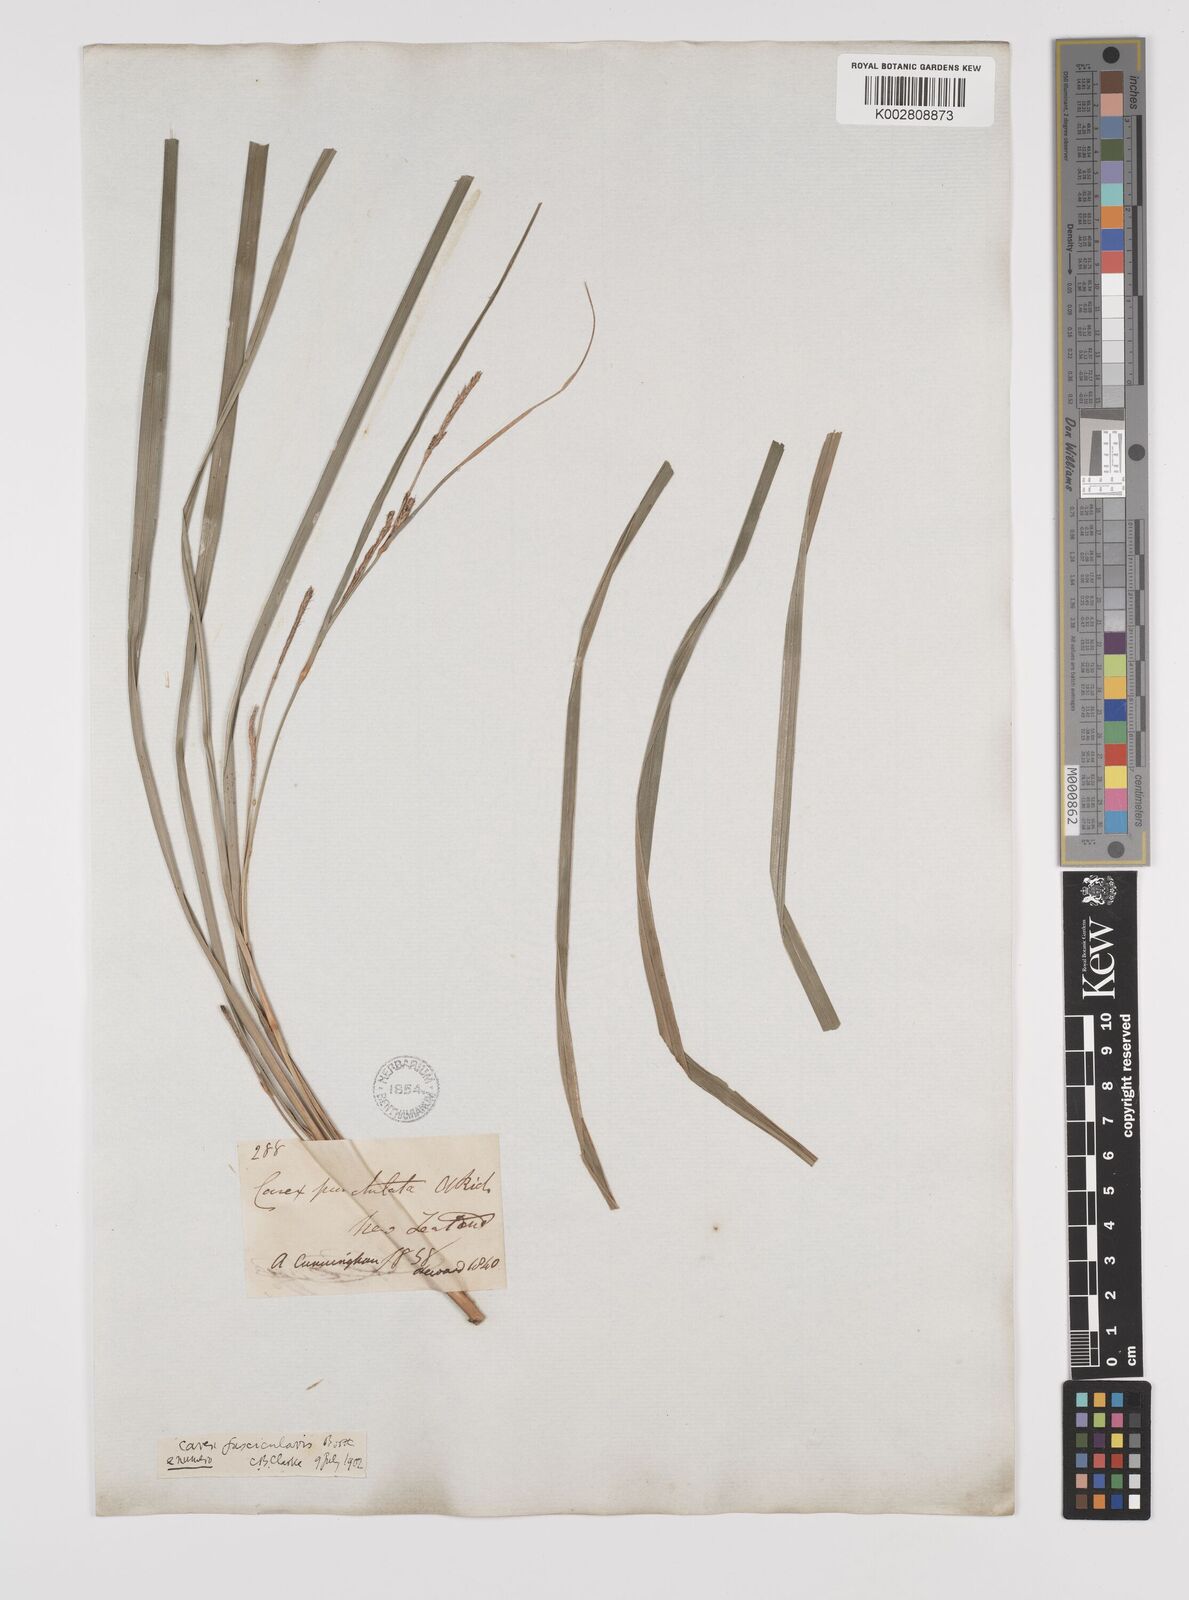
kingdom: Plantae
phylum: Tracheophyta
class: Liliopsida
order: Poales
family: Cyperaceae
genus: Carex
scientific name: Carex forsteri
